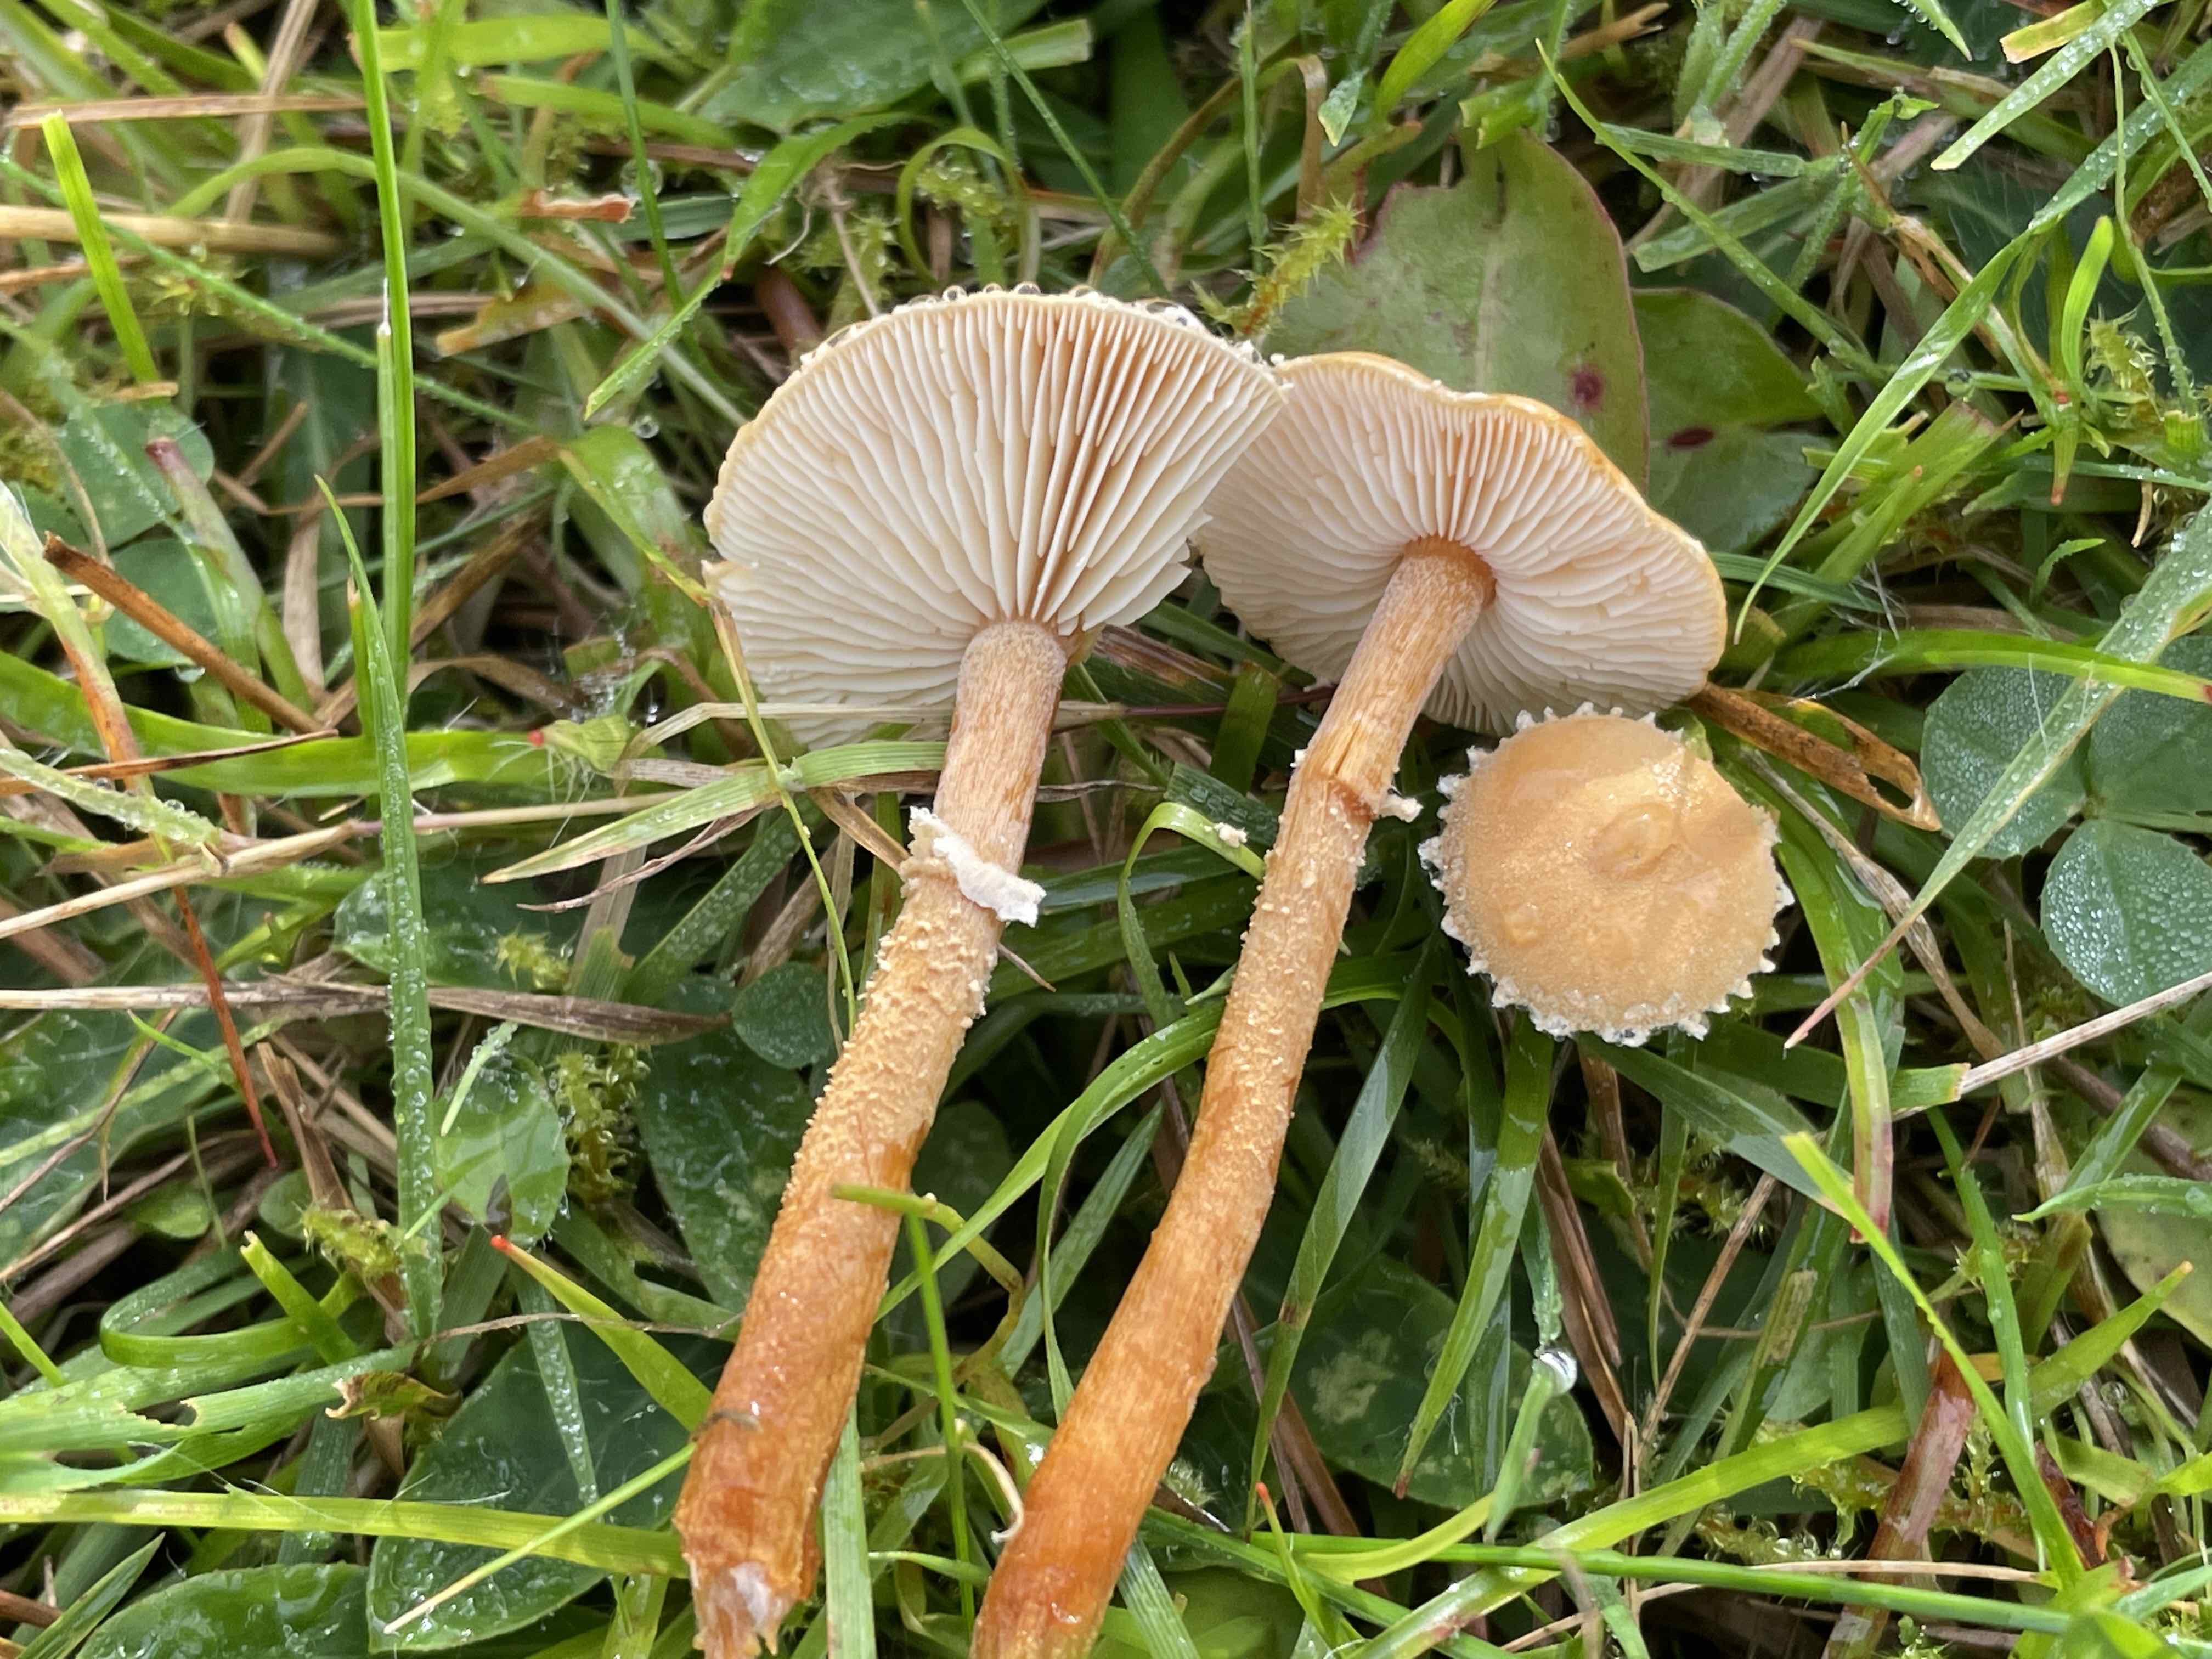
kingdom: Fungi
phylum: Basidiomycota
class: Agaricomycetes
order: Agaricales
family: Tricholomataceae
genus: Cystoderma
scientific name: Cystoderma amianthinum
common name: okkergul grynhat
